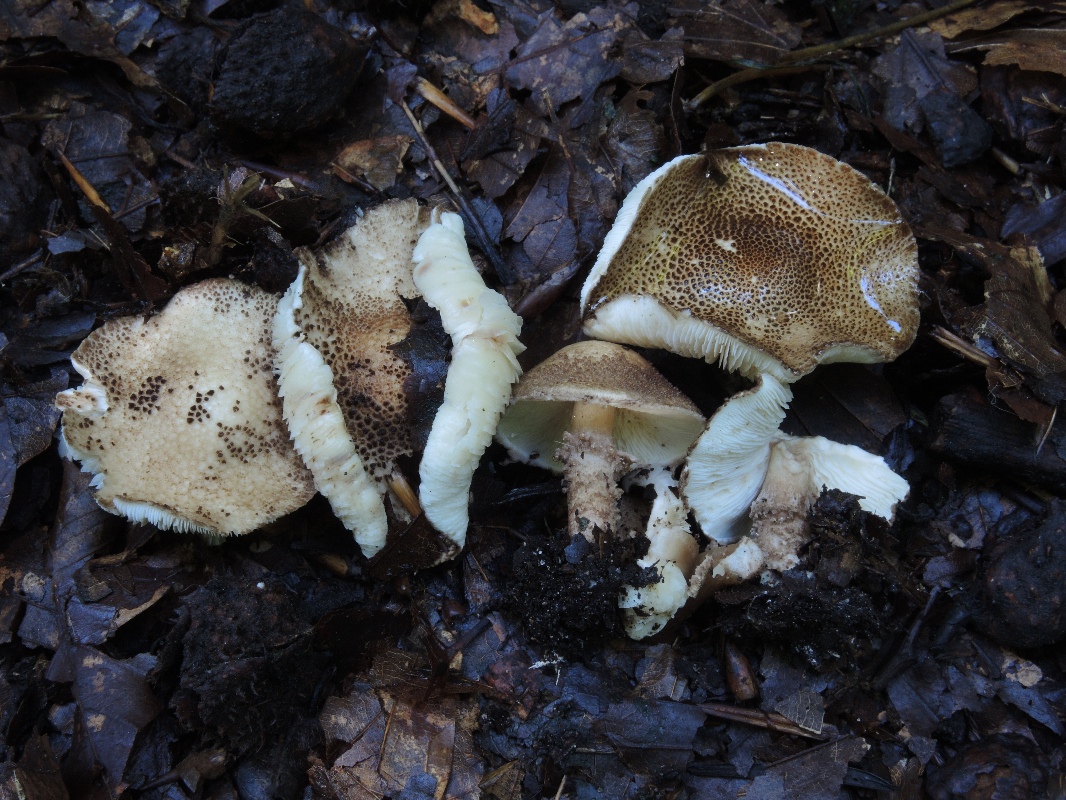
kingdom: Fungi
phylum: Basidiomycota
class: Agaricomycetes
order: Agaricales
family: Agaricaceae
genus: Echinoderma
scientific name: Echinoderma jacobi
